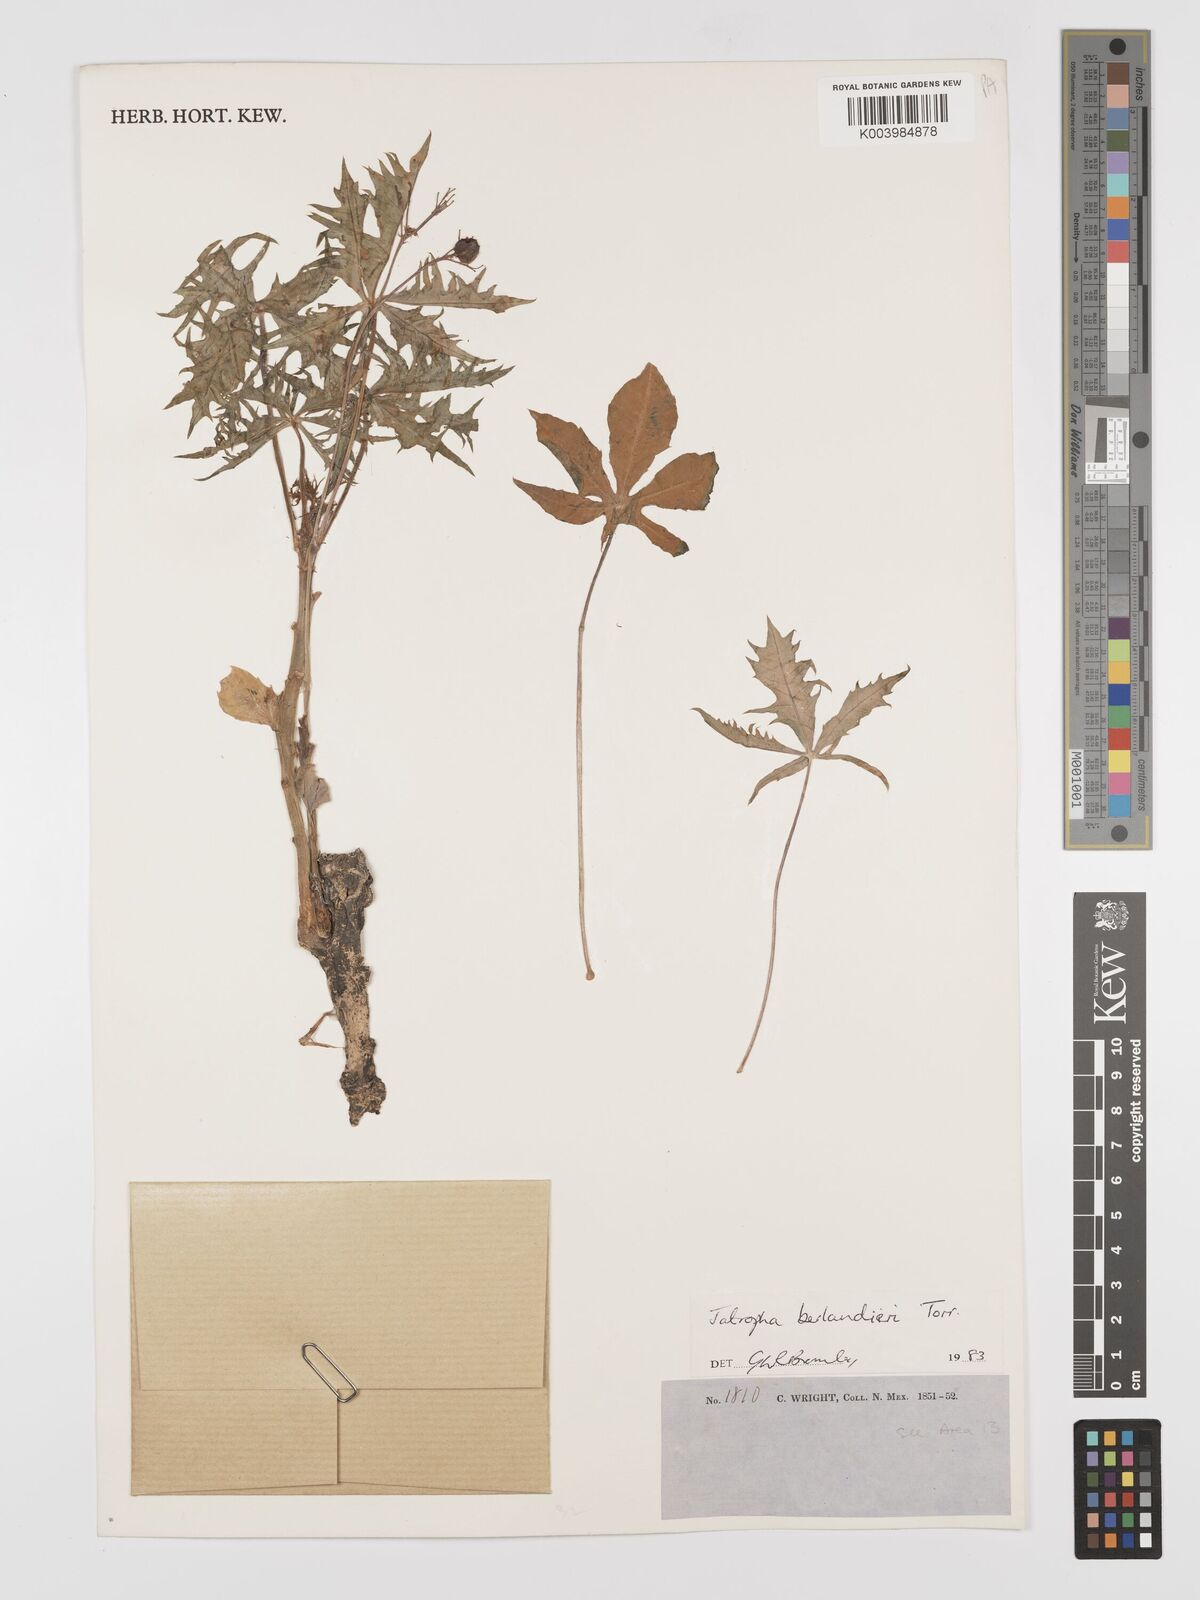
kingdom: Plantae
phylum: Tracheophyta
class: Magnoliopsida
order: Malpighiales
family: Euphorbiaceae
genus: Jatropha
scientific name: Jatropha cathartica
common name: Berlander's nettlespurge
